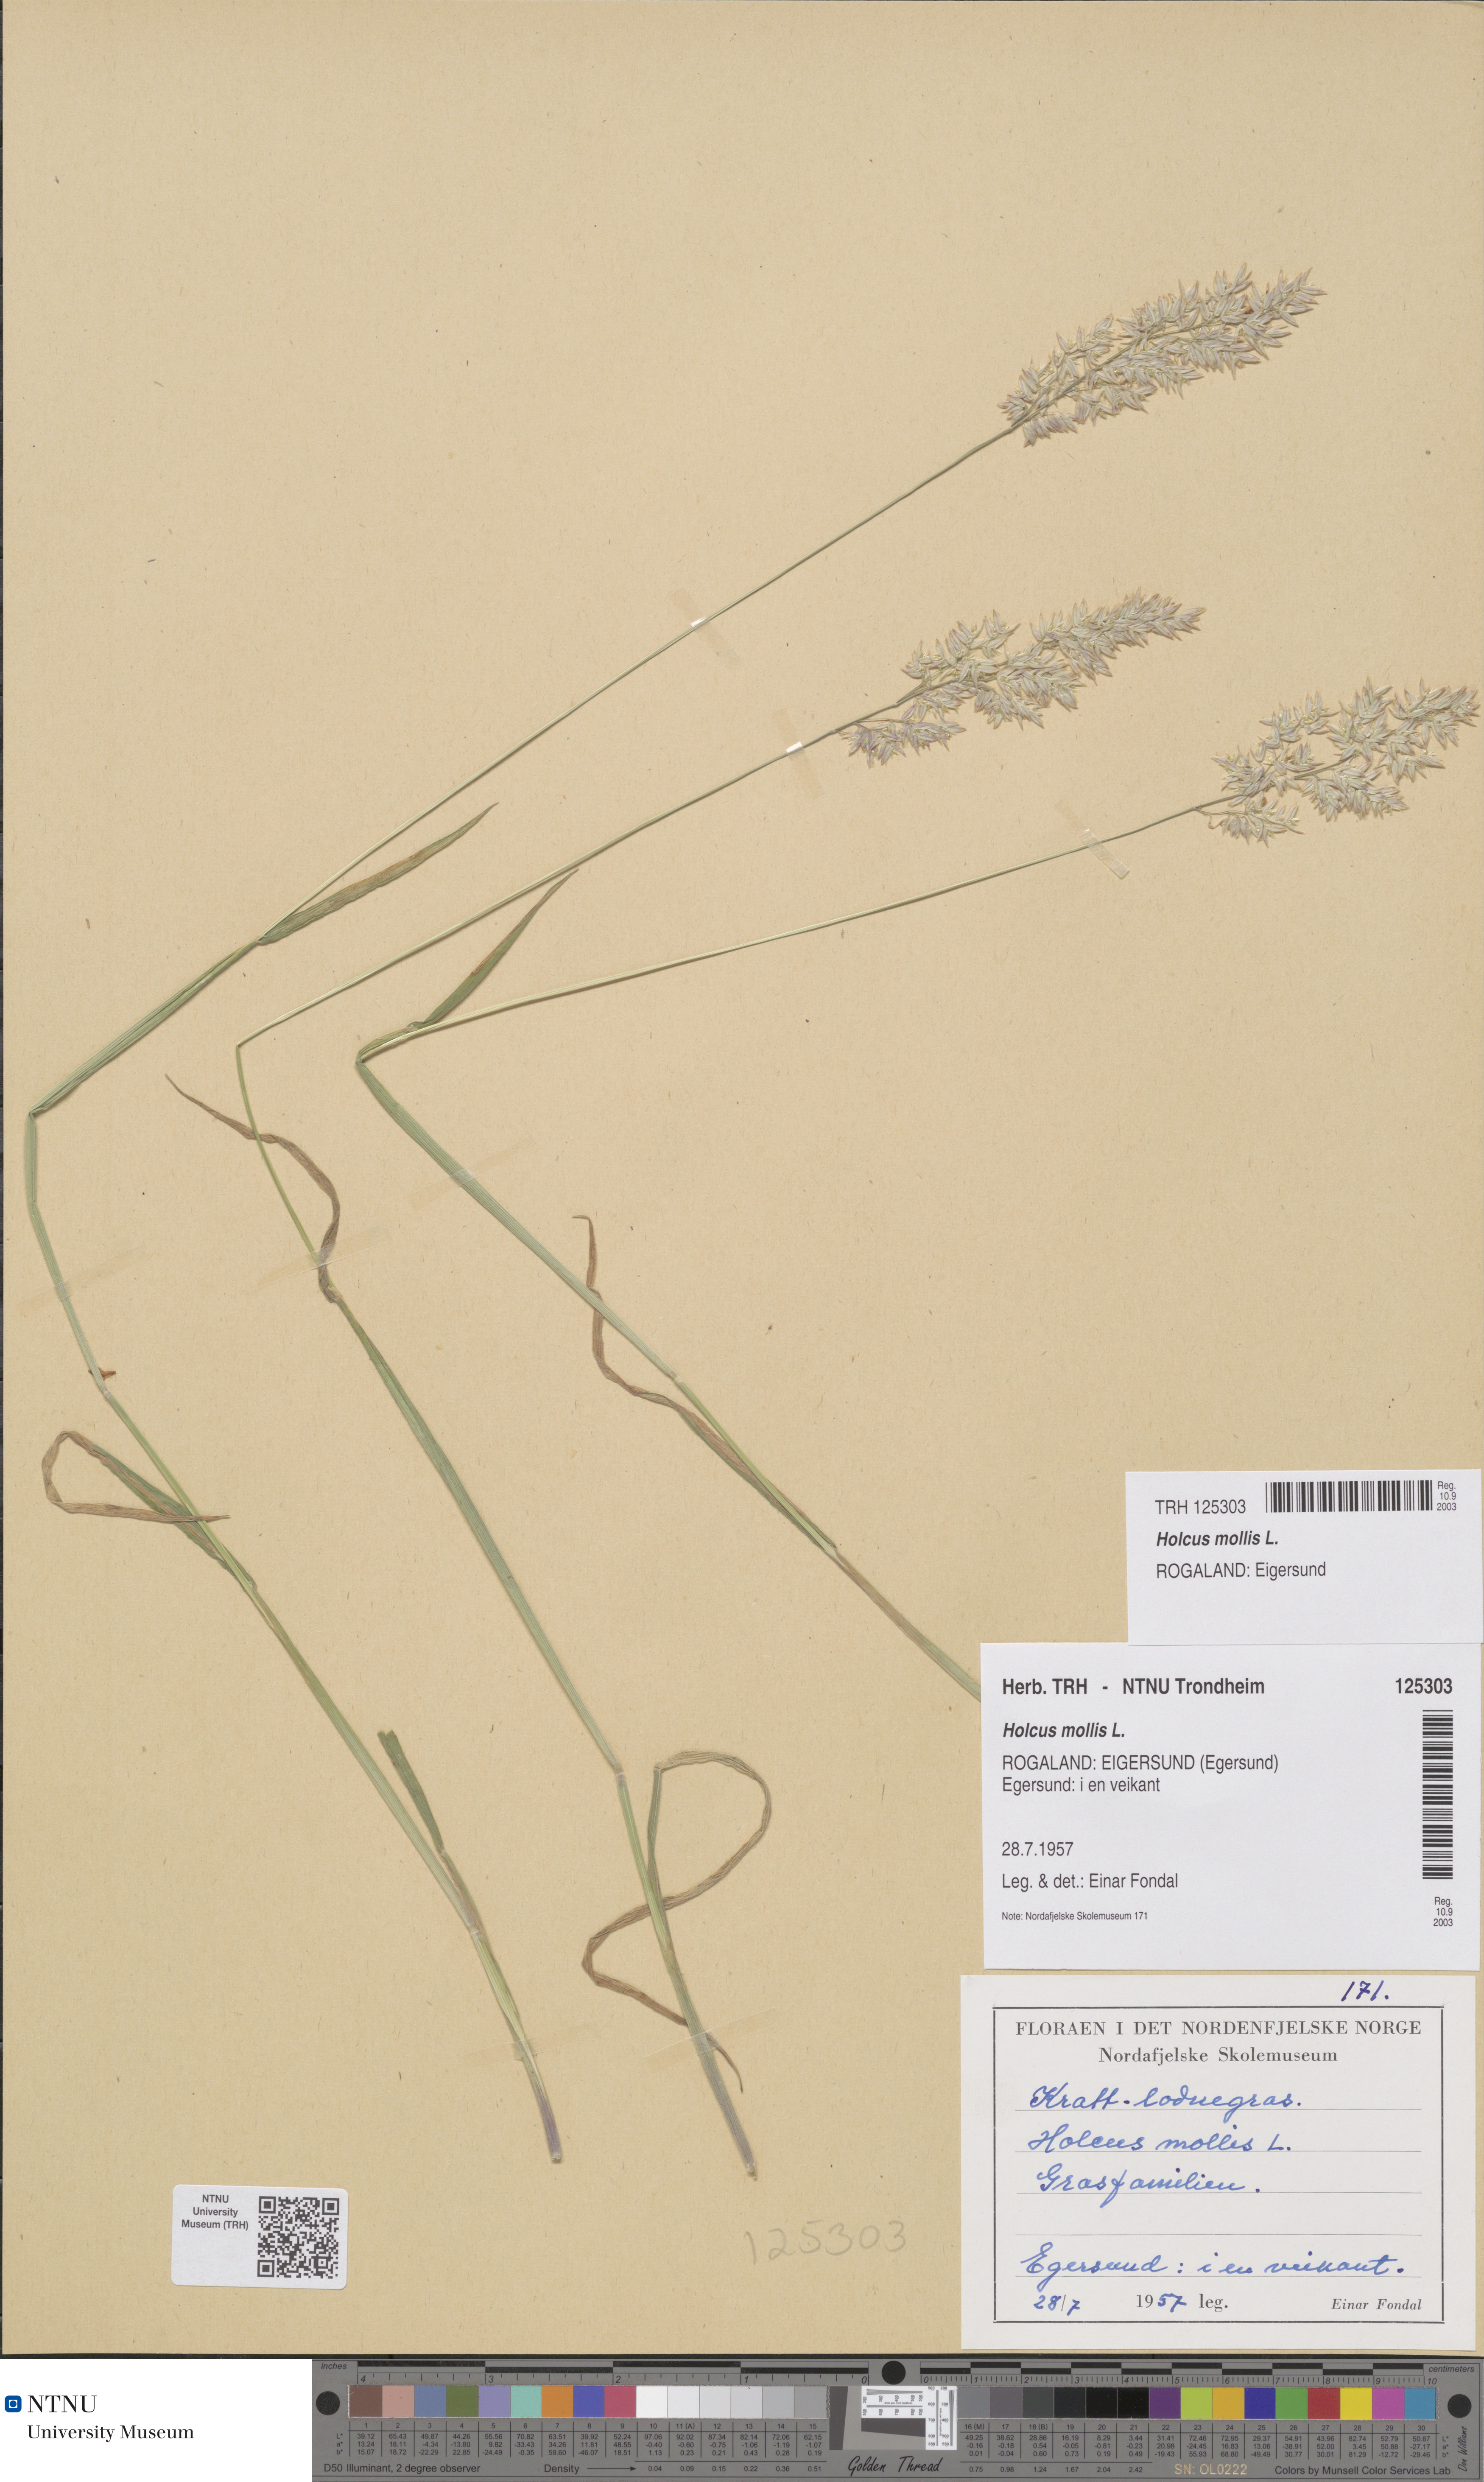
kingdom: Plantae
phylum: Tracheophyta
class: Liliopsida
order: Poales
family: Poaceae
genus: Holcus
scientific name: Holcus mollis
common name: Creeping velvetgrass
